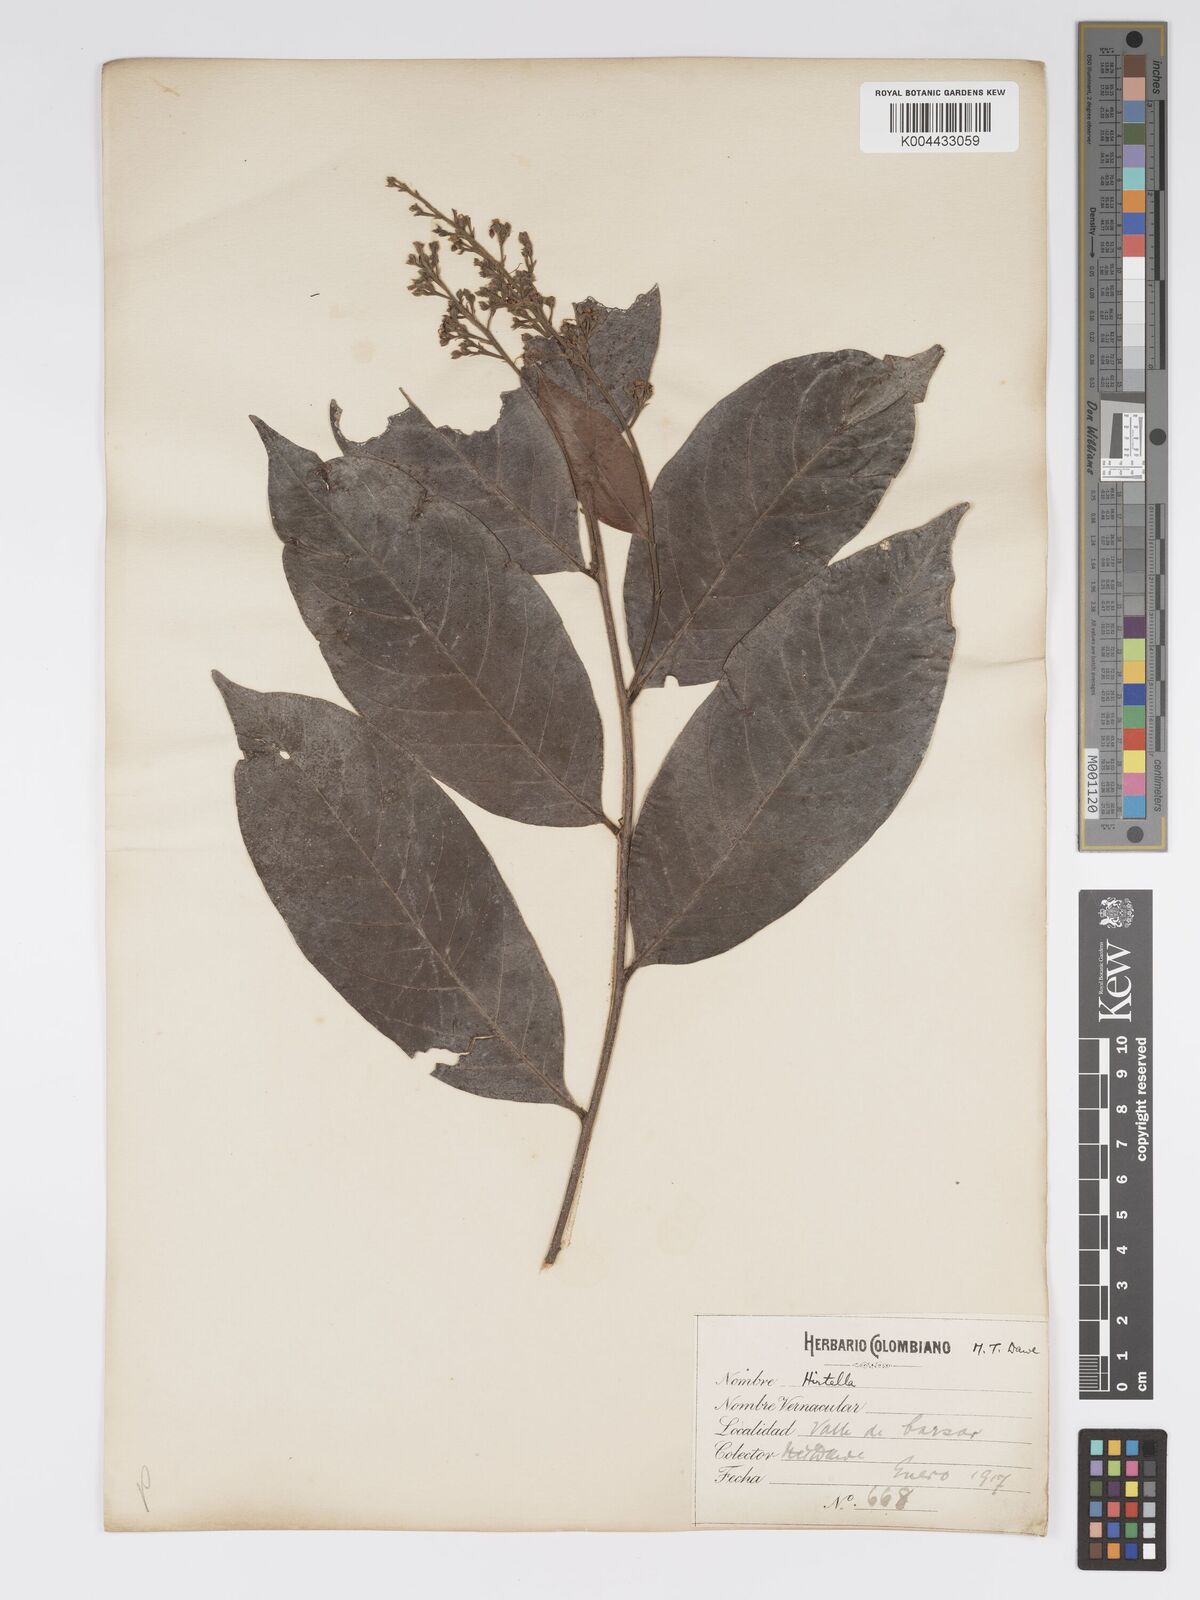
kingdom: Plantae
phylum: Tracheophyta
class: Magnoliopsida
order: Malpighiales
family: Chrysobalanaceae
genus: Hirtella
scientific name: Hirtella triandra
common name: Hairy plum
